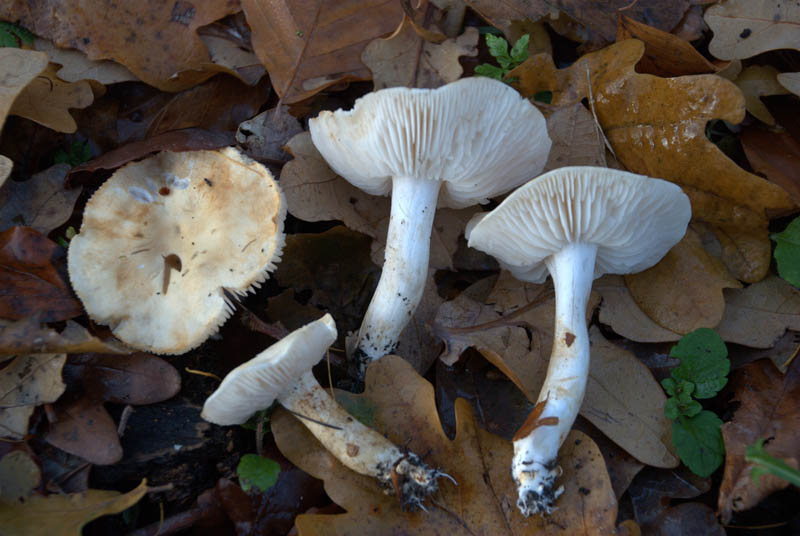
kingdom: Fungi
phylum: Basidiomycota
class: Agaricomycetes
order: Agaricales
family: Tricholomataceae
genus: Tricholoma
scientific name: Tricholoma album
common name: honning-ridderhat
